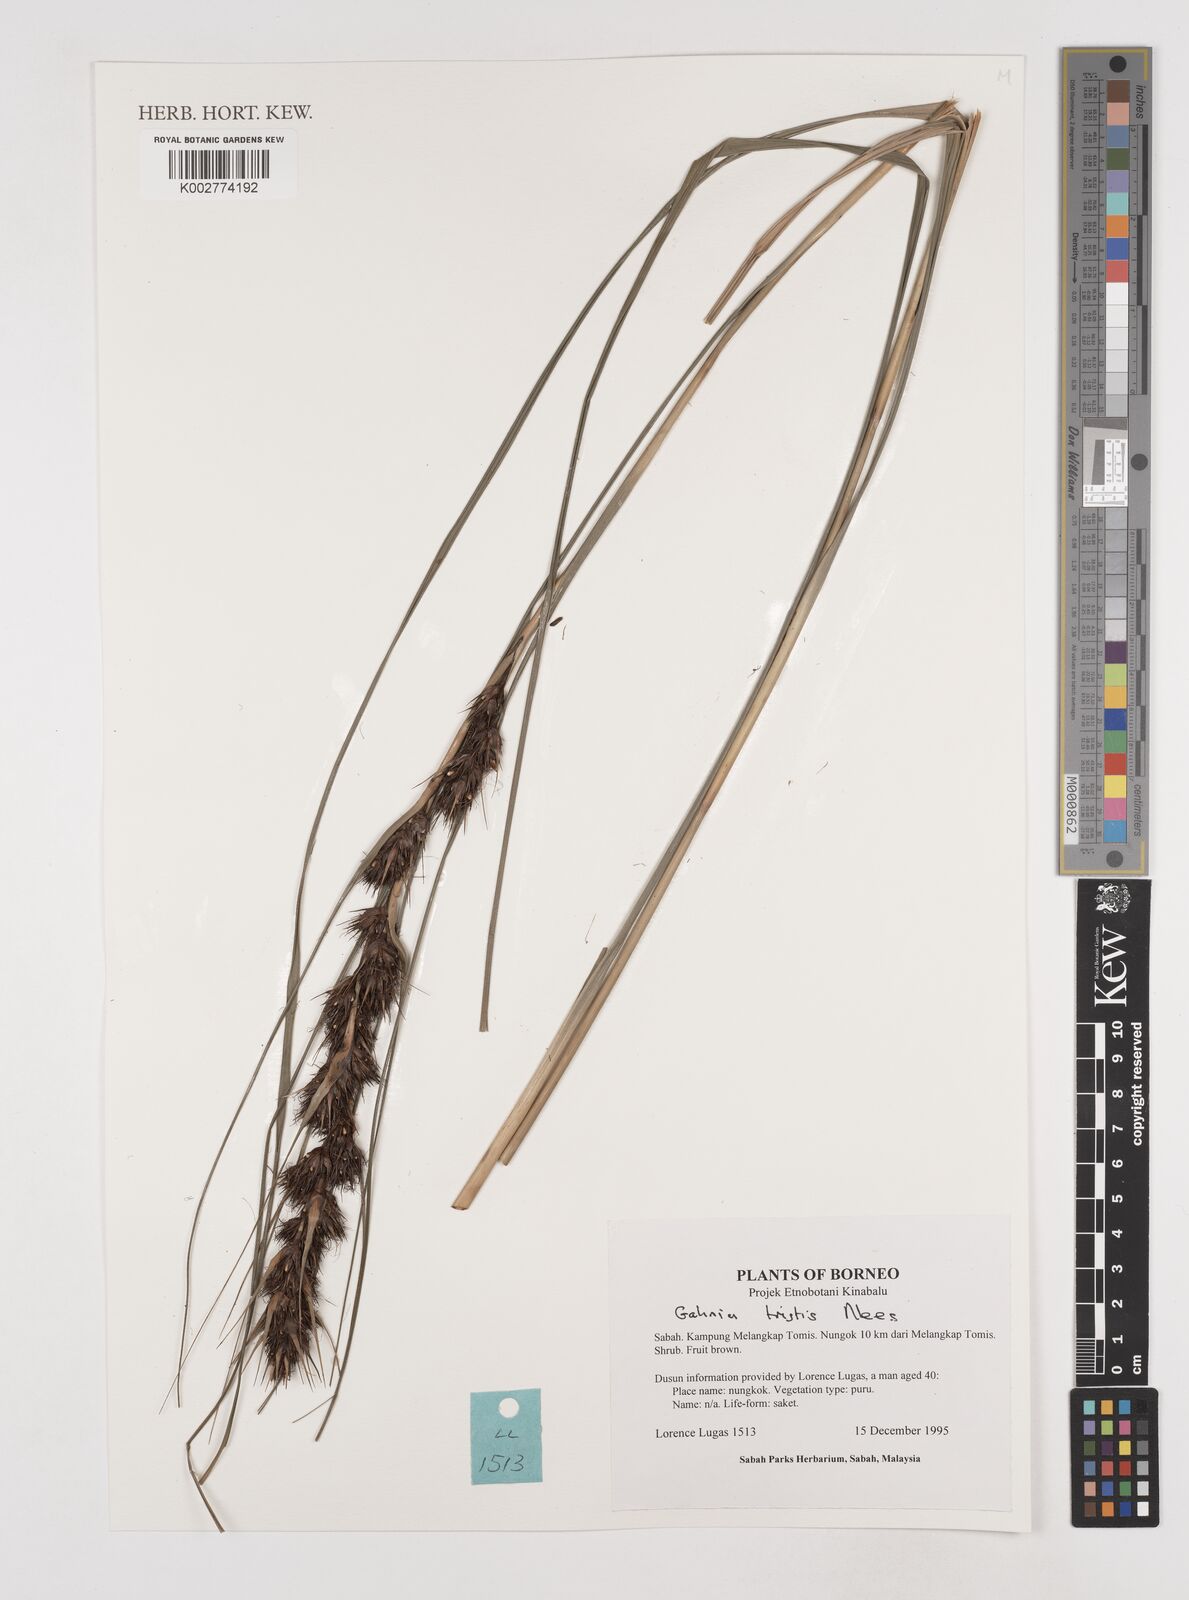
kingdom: Plantae
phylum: Tracheophyta
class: Liliopsida
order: Poales
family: Cyperaceae
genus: Gahnia
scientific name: Gahnia tristis
